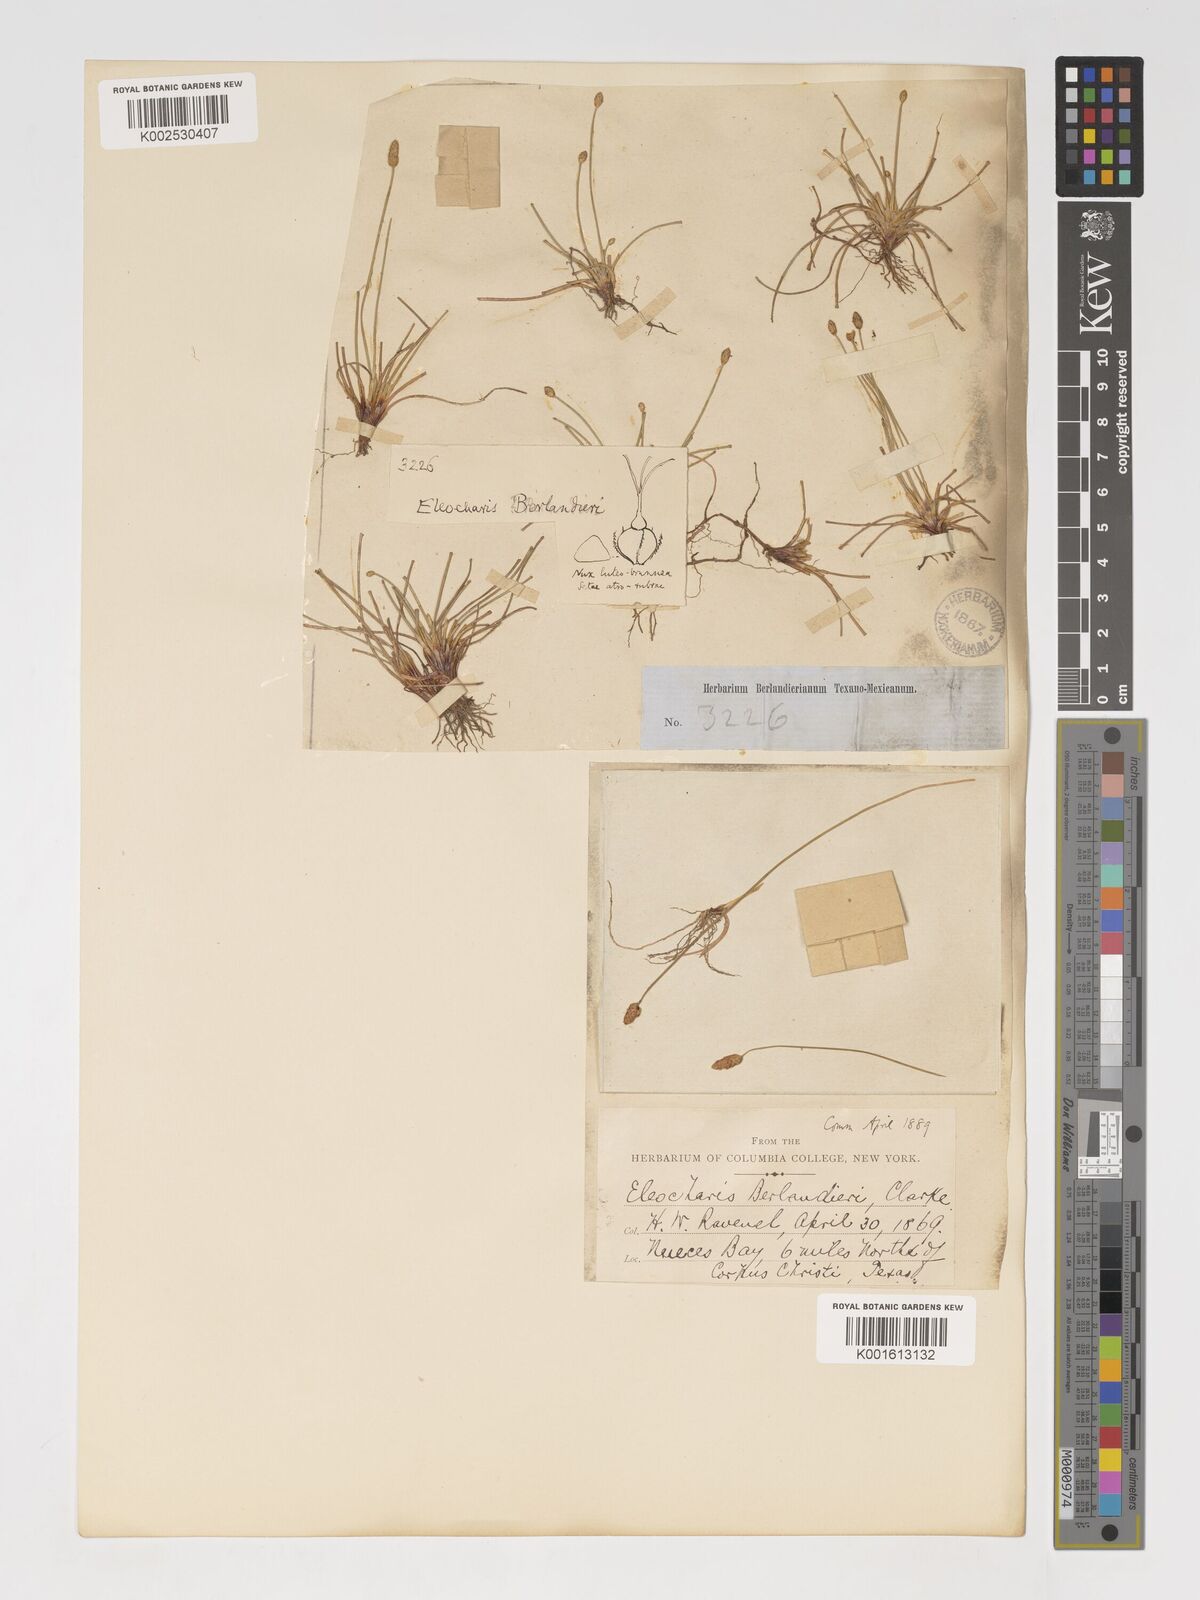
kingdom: Plantae
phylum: Tracheophyta
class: Liliopsida
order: Poales
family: Cyperaceae
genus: Eleocharis
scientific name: Eleocharis albida
